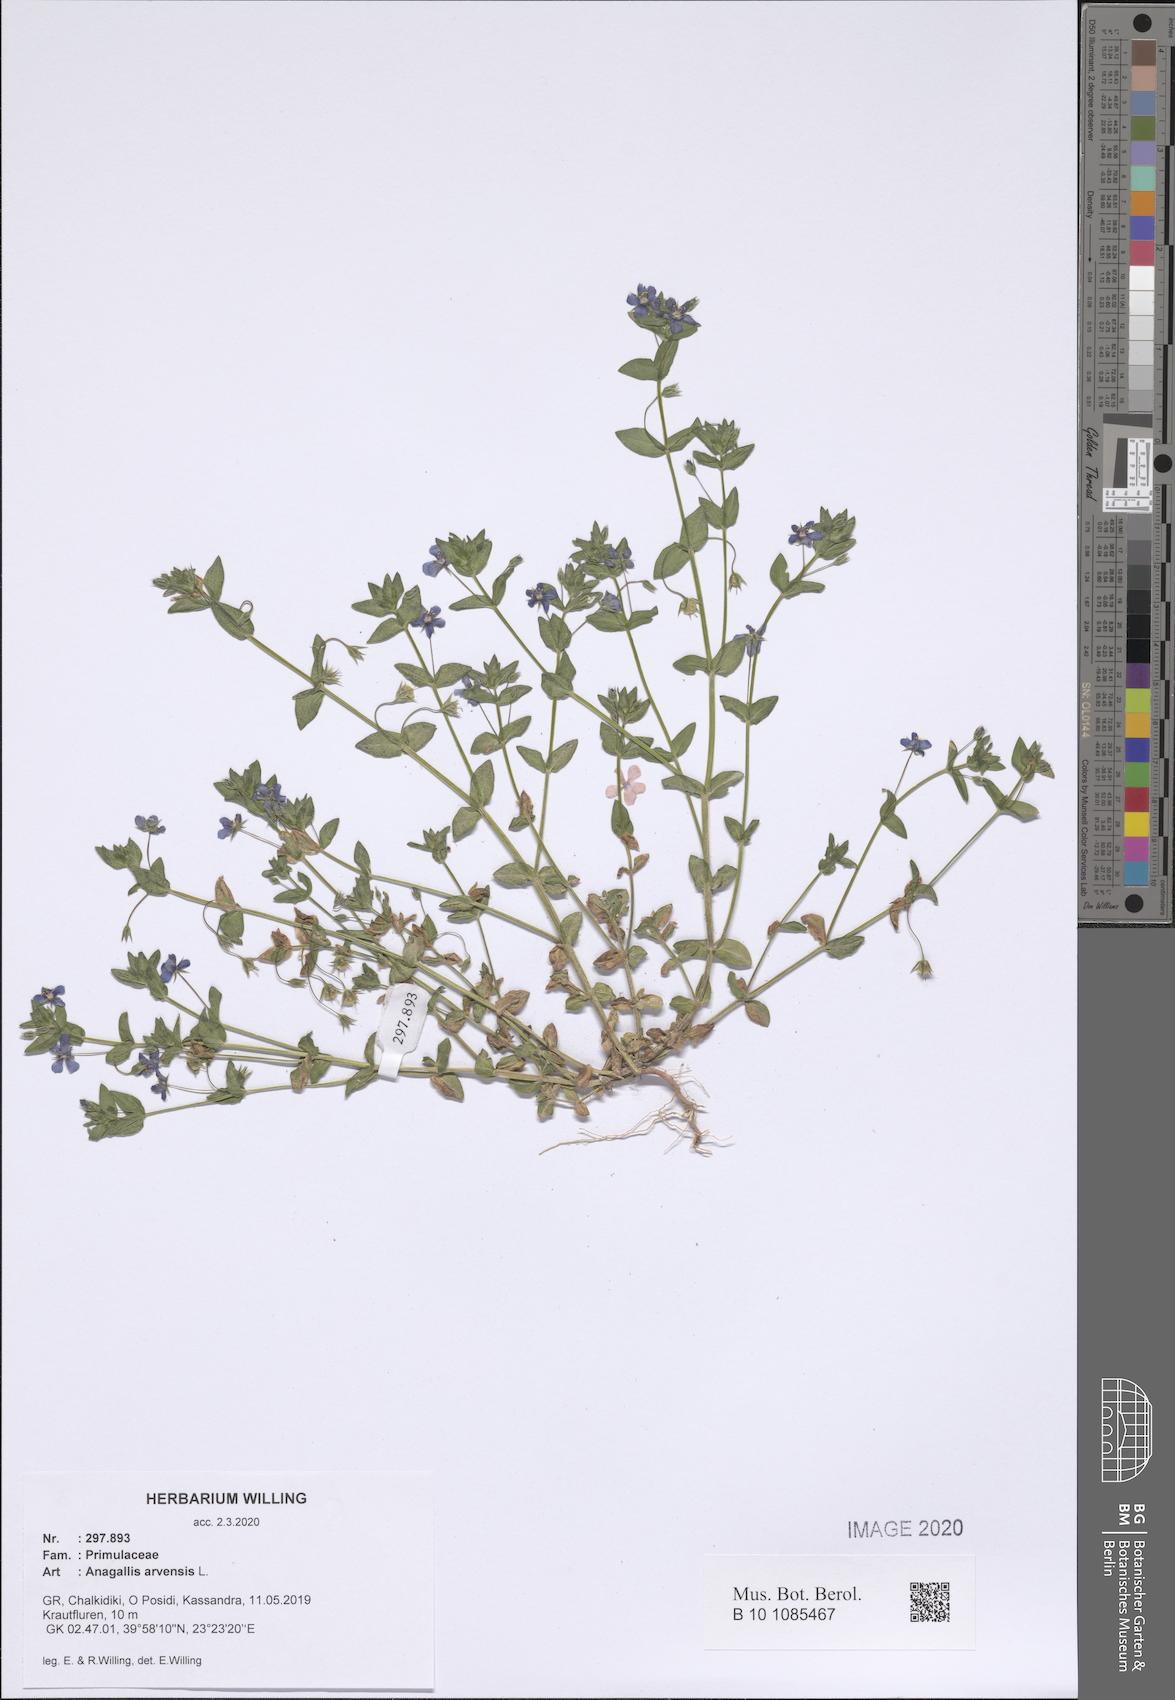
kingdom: Plantae
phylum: Tracheophyta
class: Magnoliopsida
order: Ericales
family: Primulaceae
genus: Lysimachia
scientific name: Lysimachia arvensis
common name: Scarlet pimpernel
